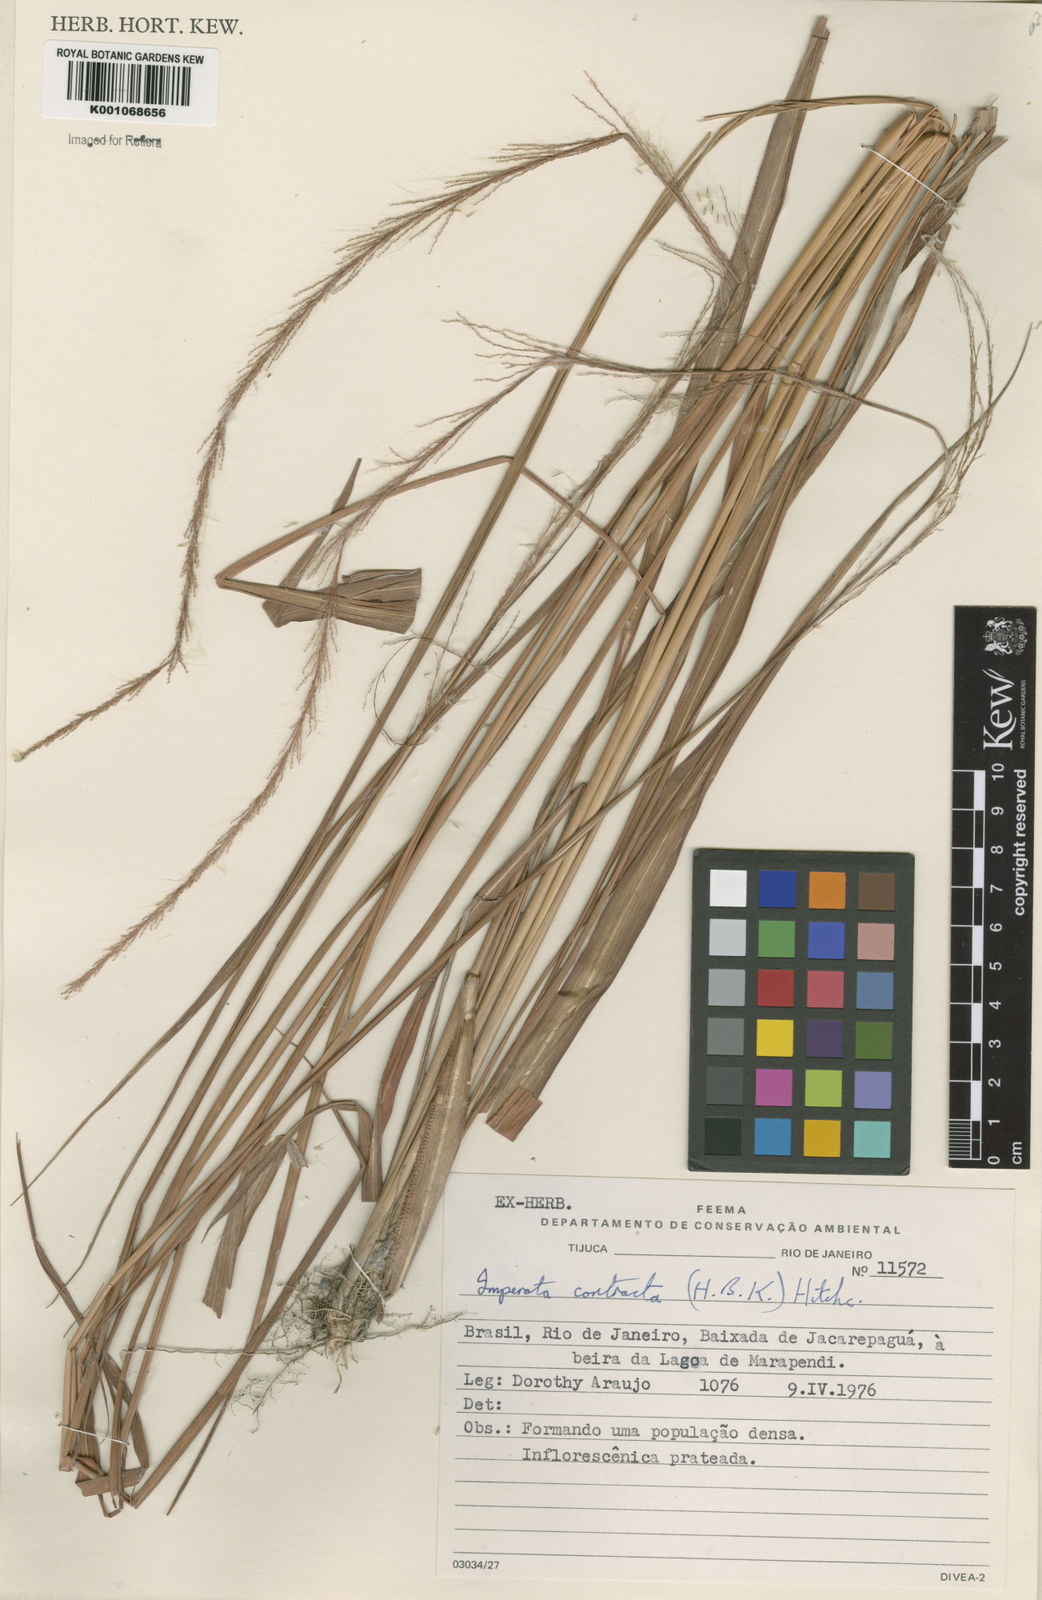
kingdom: Plantae
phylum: Tracheophyta
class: Liliopsida
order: Poales
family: Poaceae
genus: Imperata
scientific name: Imperata contracta
